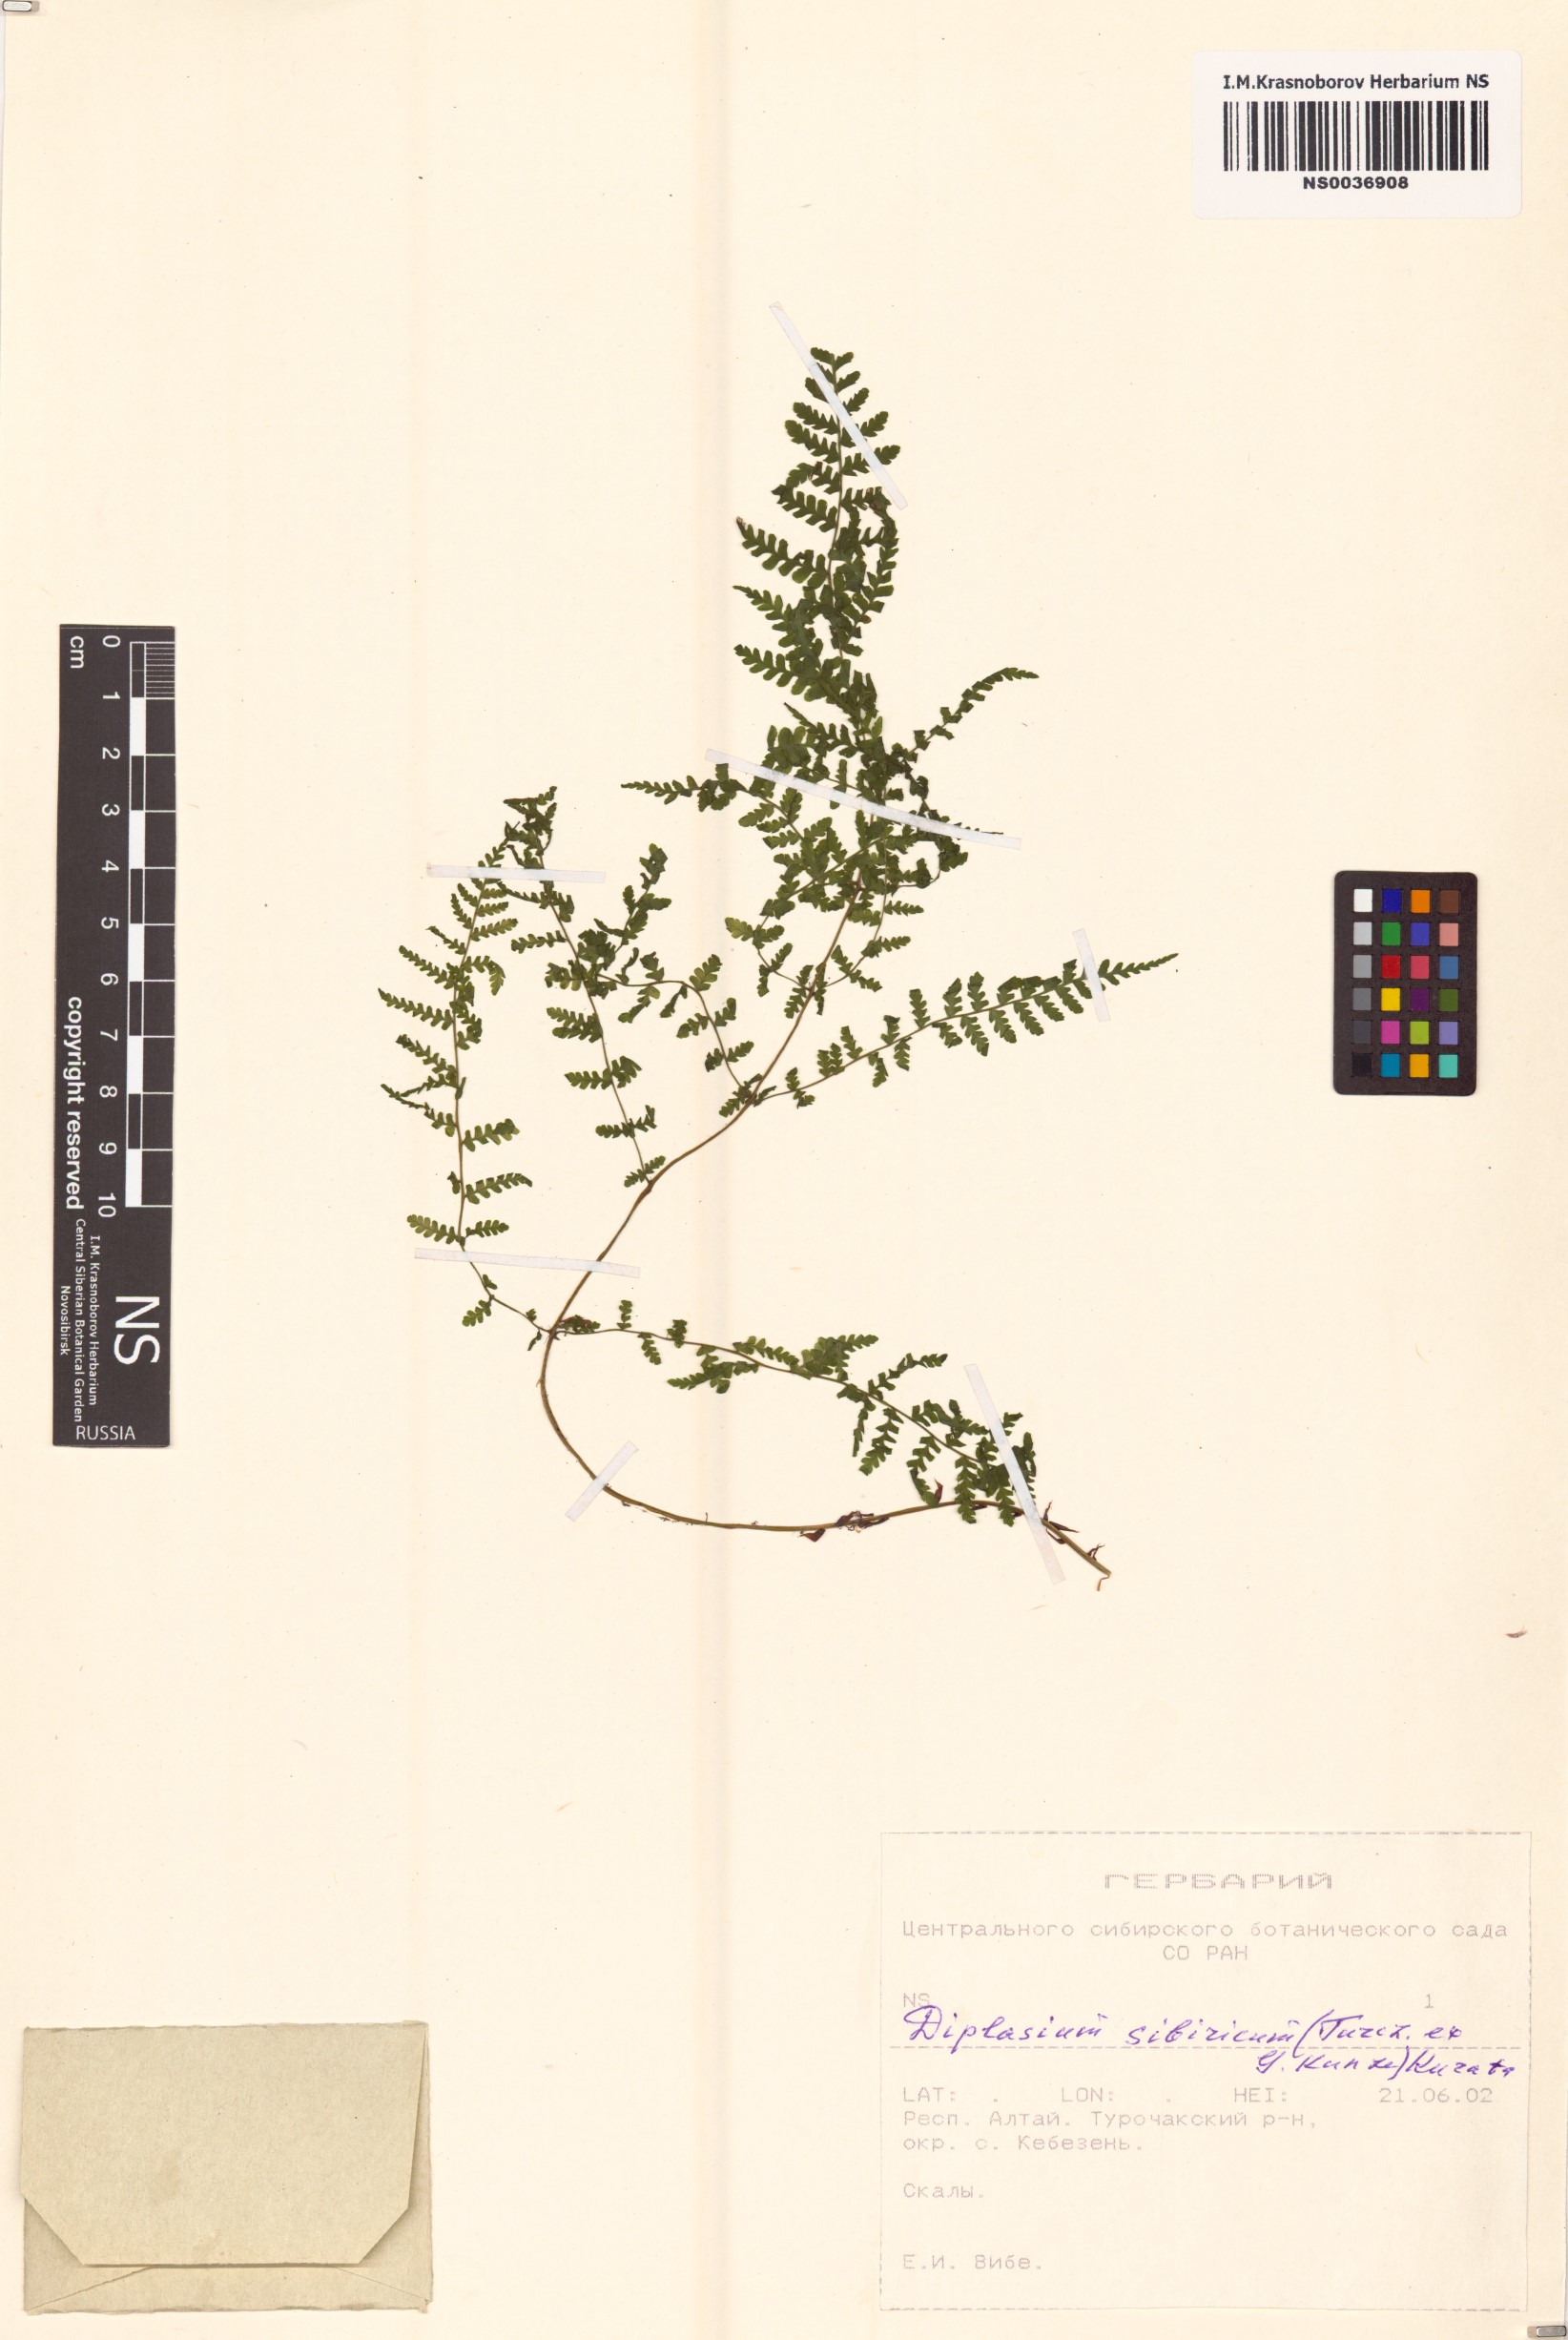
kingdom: Plantae
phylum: Tracheophyta
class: Polypodiopsida
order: Polypodiales
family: Athyriaceae
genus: Diplazium
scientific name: Diplazium sibiricum
